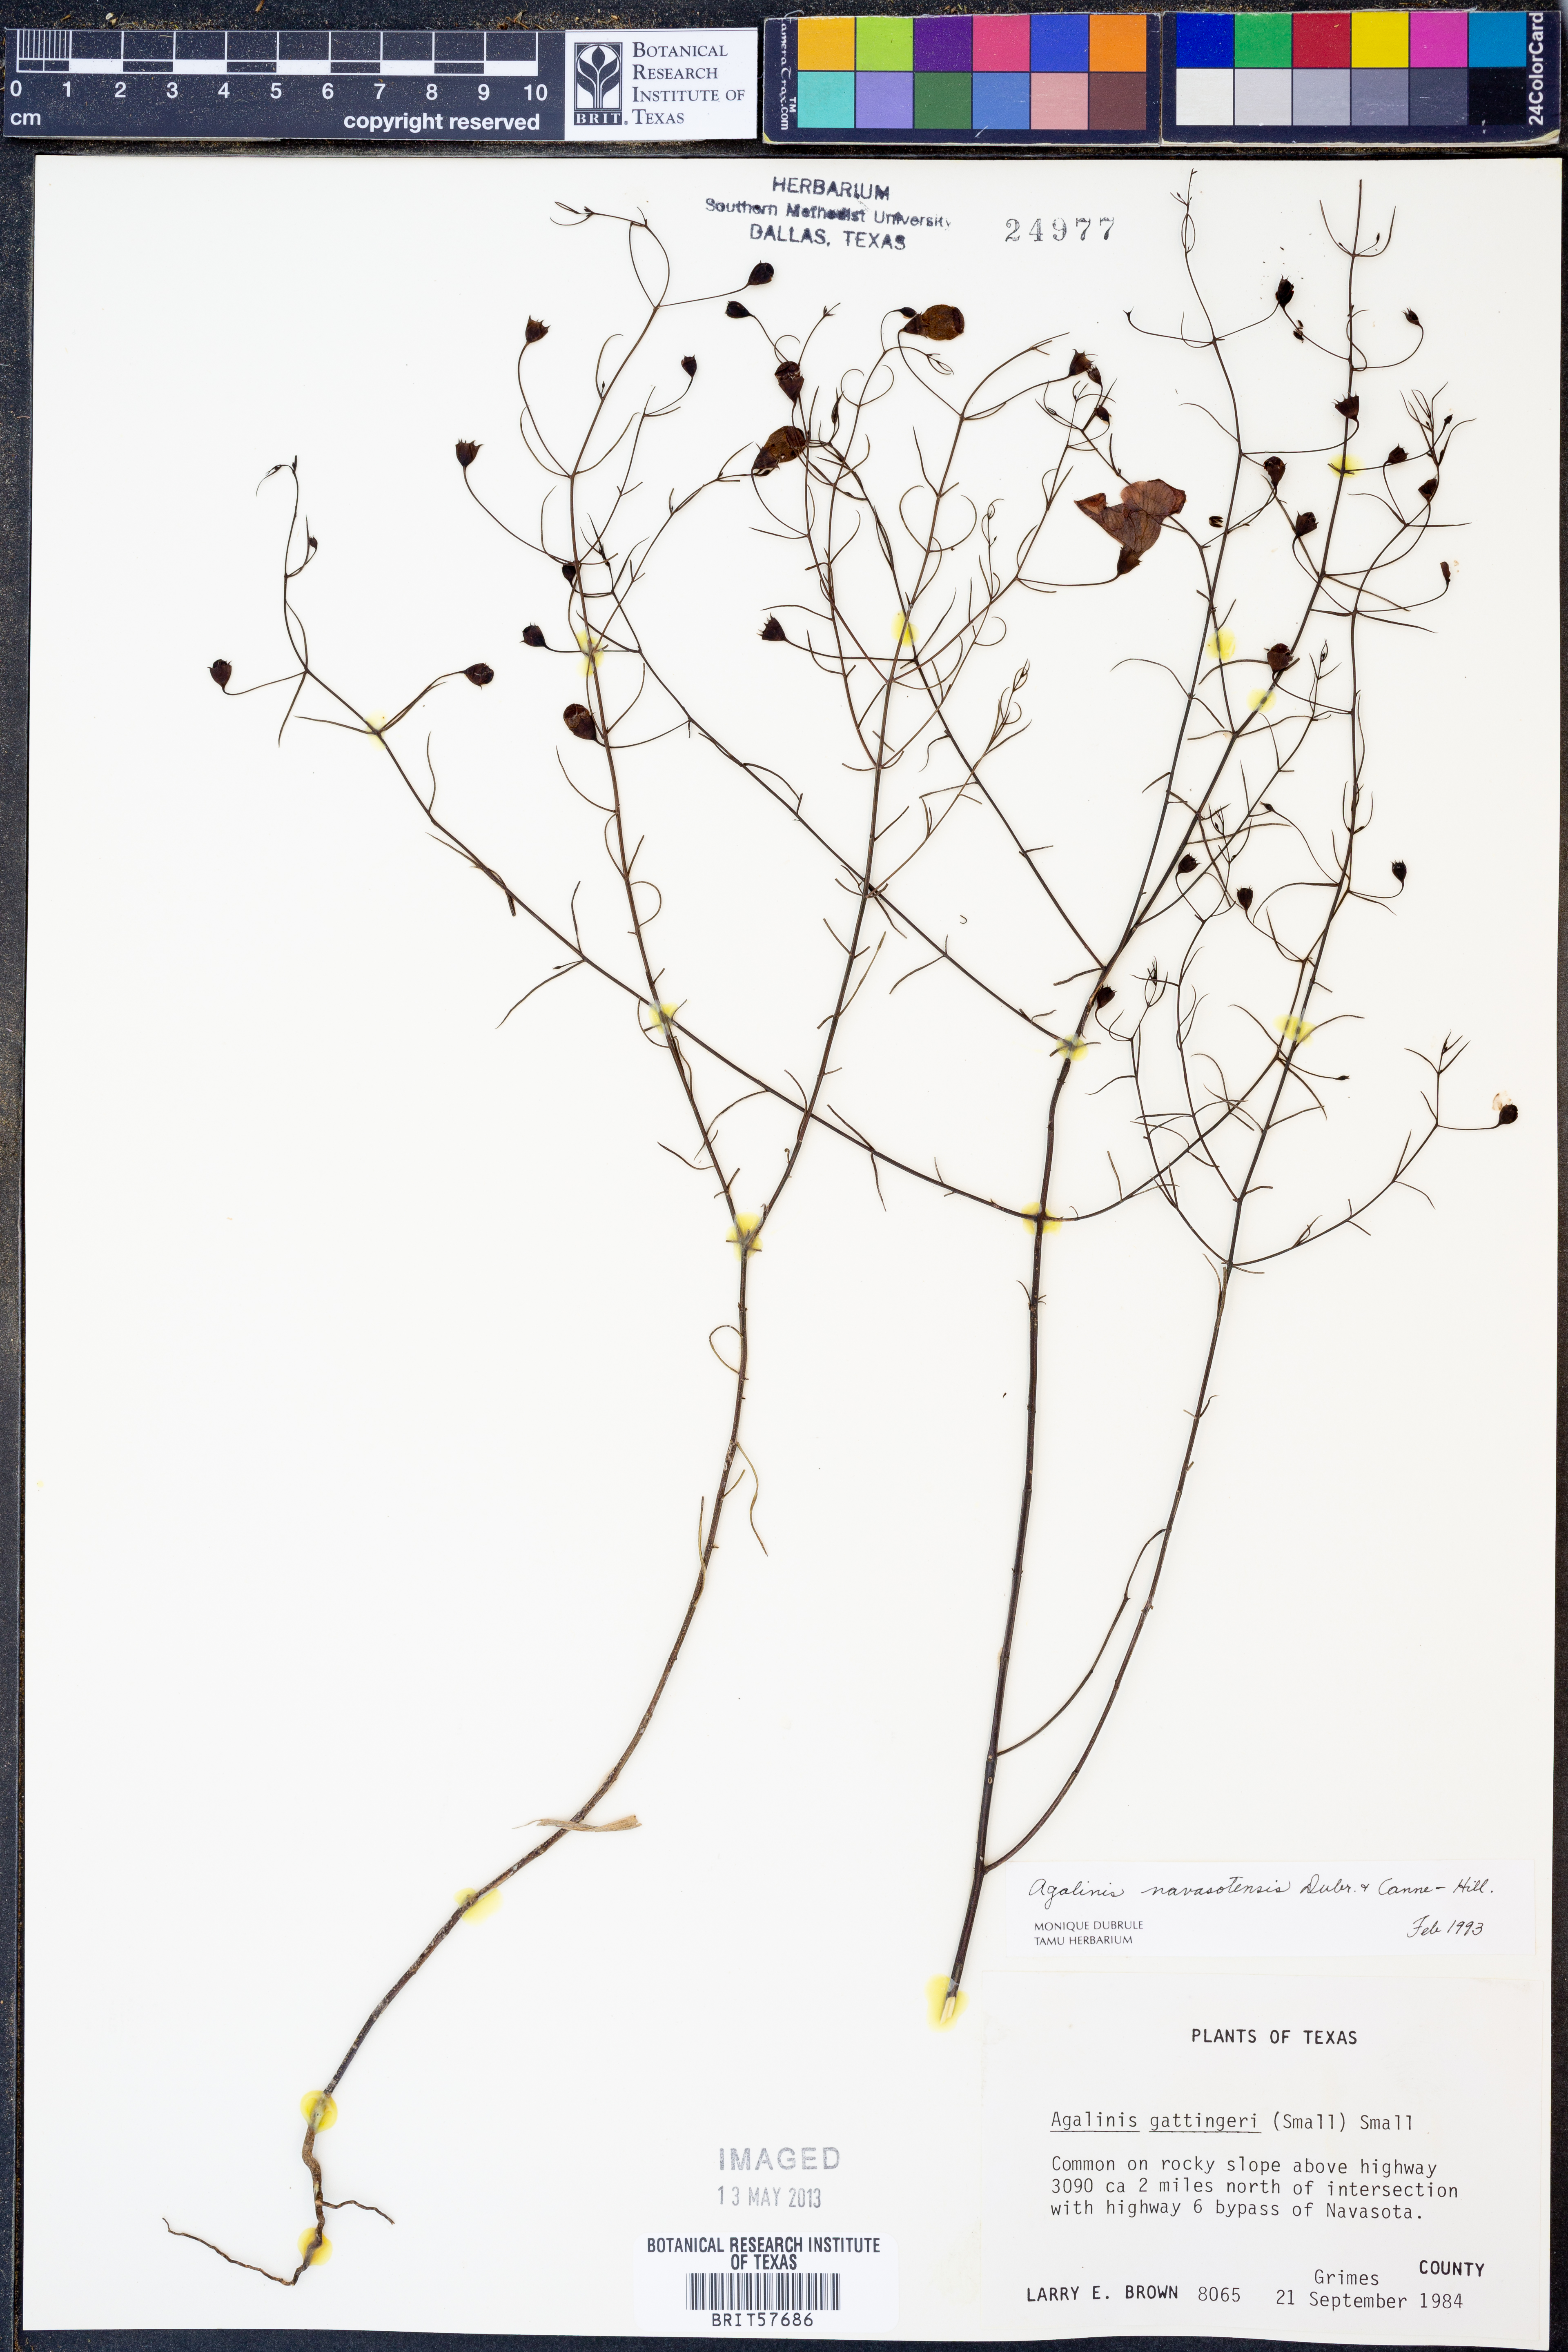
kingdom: Plantae
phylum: Tracheophyta
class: Magnoliopsida
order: Lamiales
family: Orobanchaceae
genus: Agalinis
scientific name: Agalinis navasotensis
